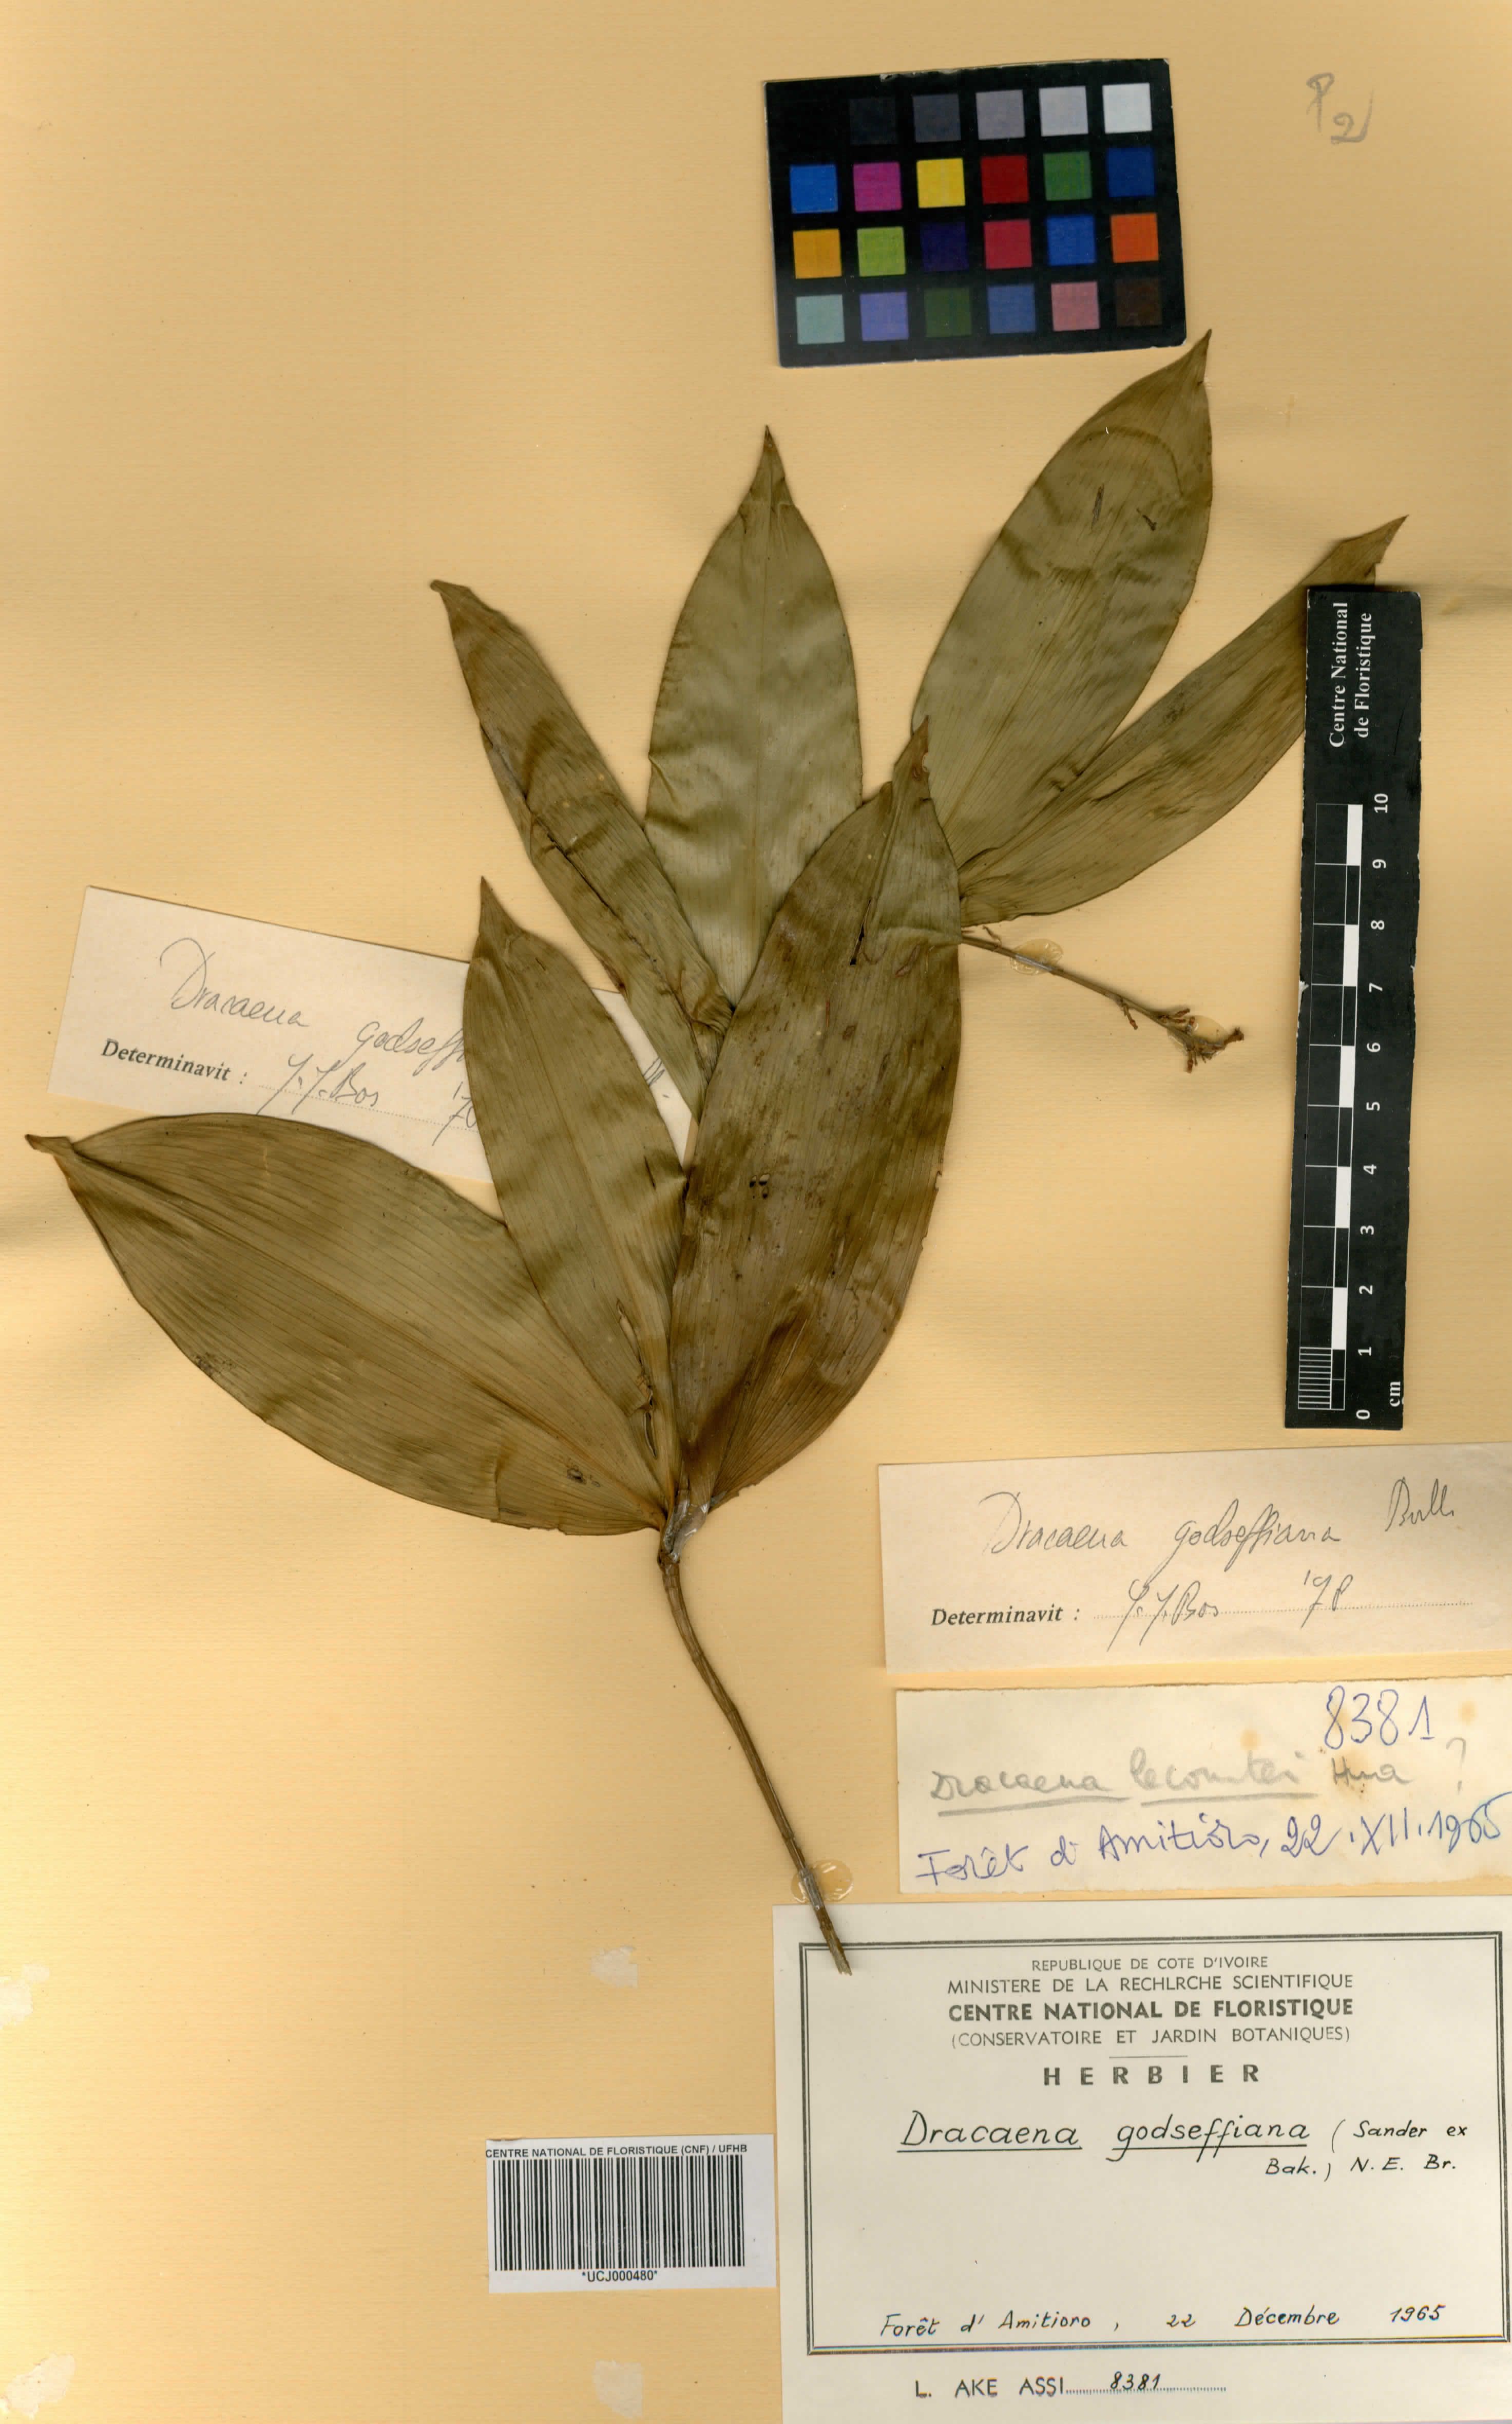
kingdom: Plantae
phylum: Tracheophyta
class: Liliopsida
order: Asparagales
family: Asparagaceae
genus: Dracaena
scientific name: Dracaena surculosa
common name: Spotted dracaena
